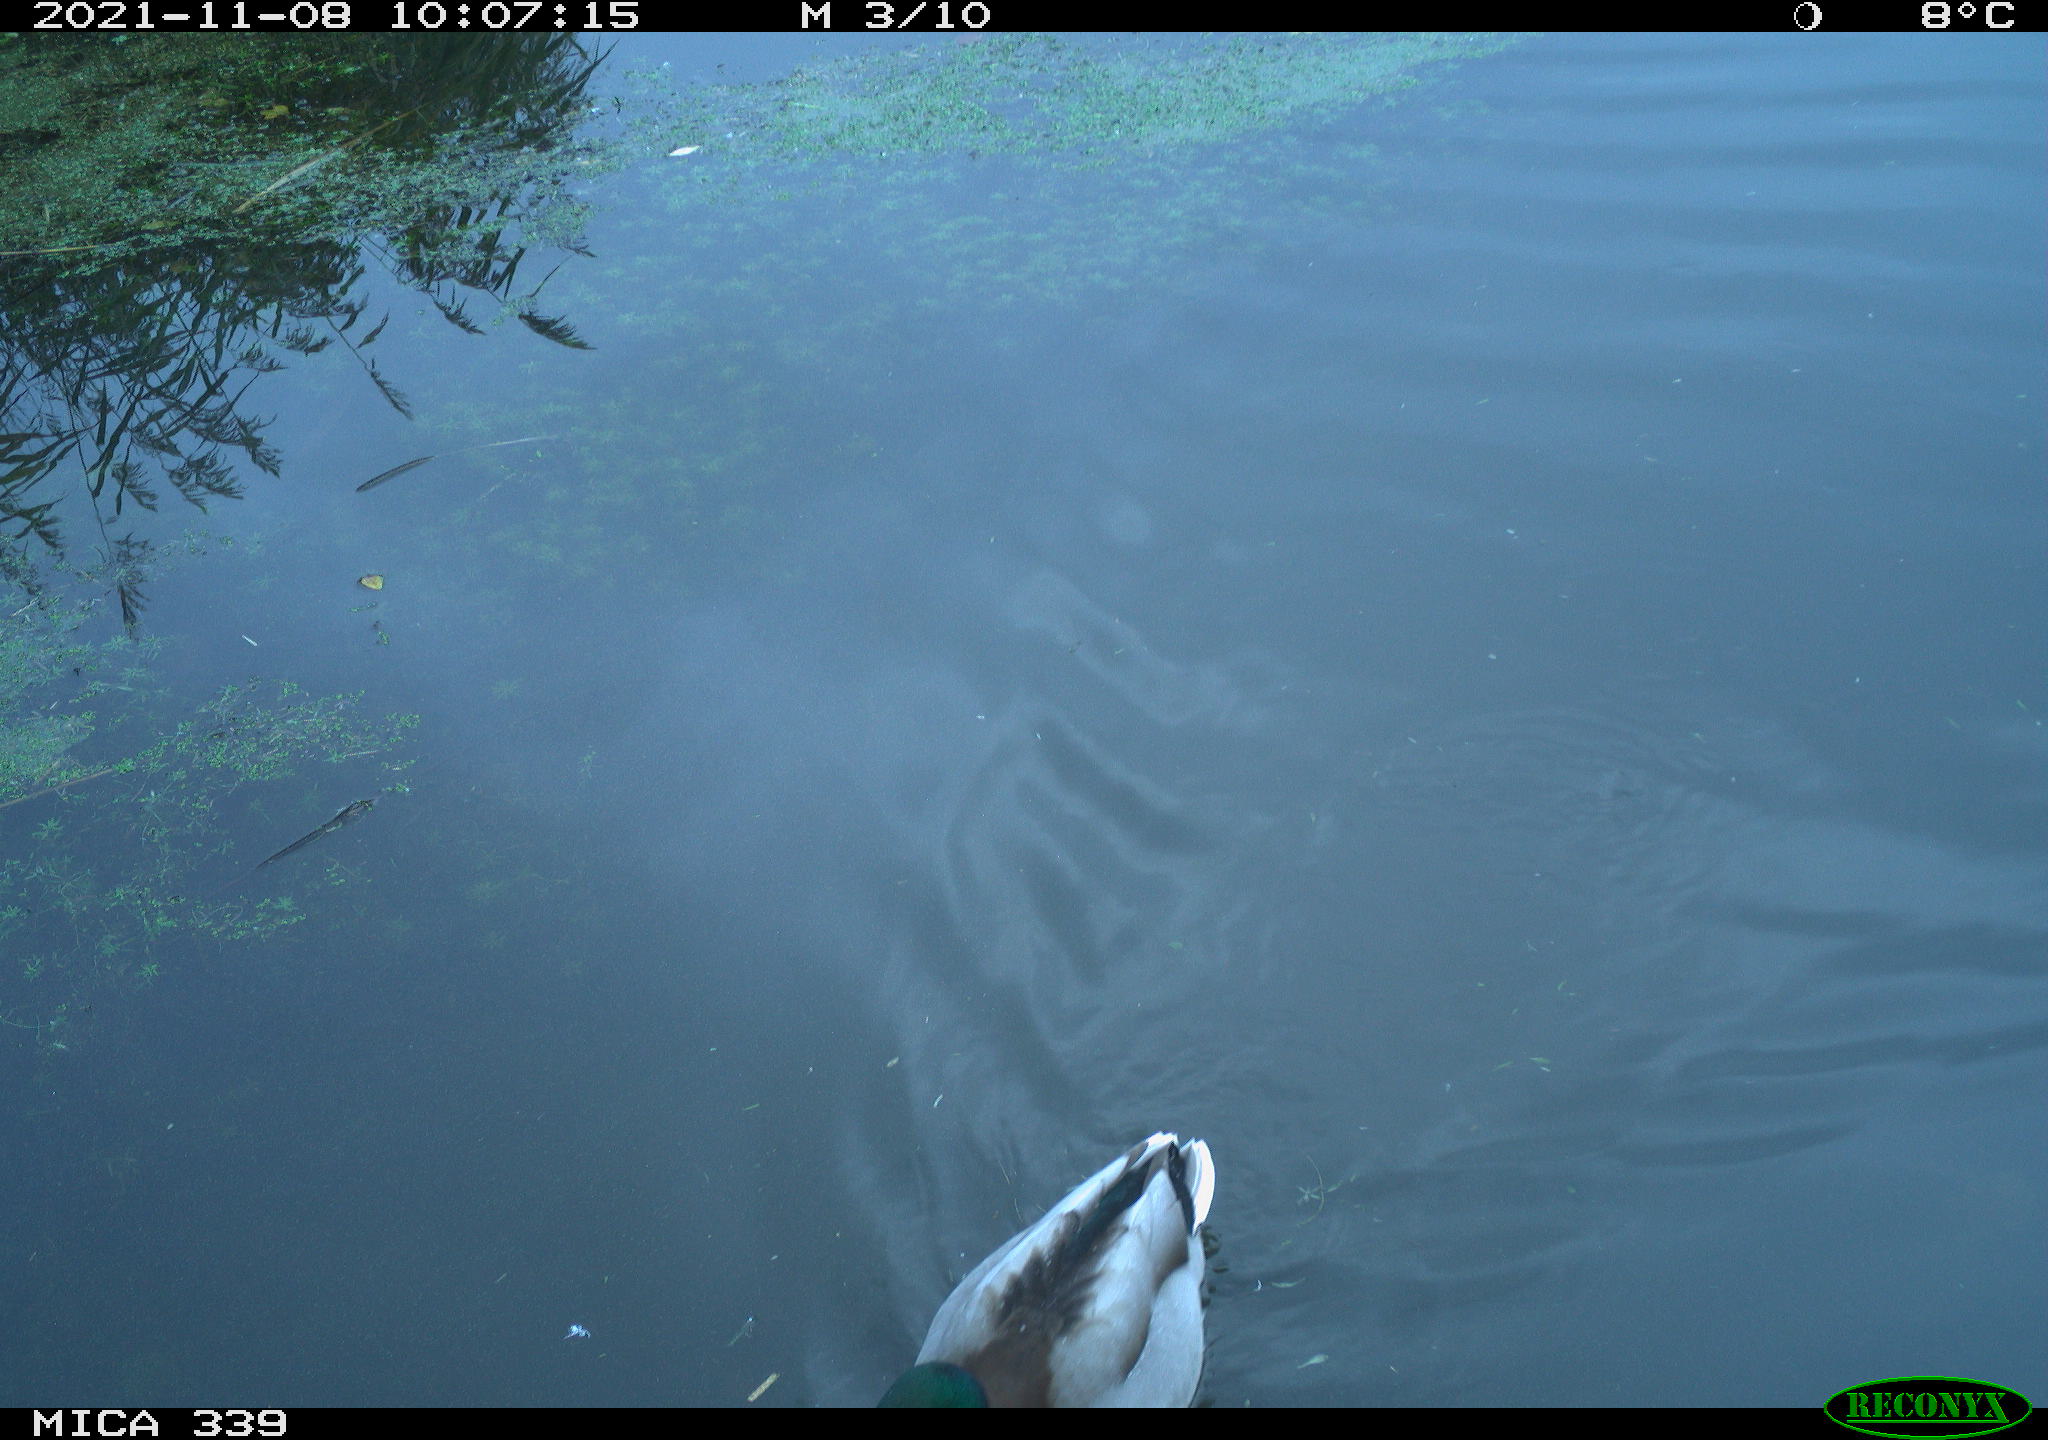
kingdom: Animalia
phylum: Chordata
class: Aves
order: Anseriformes
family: Anatidae
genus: Anas
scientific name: Anas platyrhynchos
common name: Mallard
